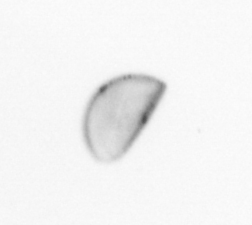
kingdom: Chromista
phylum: Ochrophyta
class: Bacillariophyceae
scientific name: Bacillariophyceae
